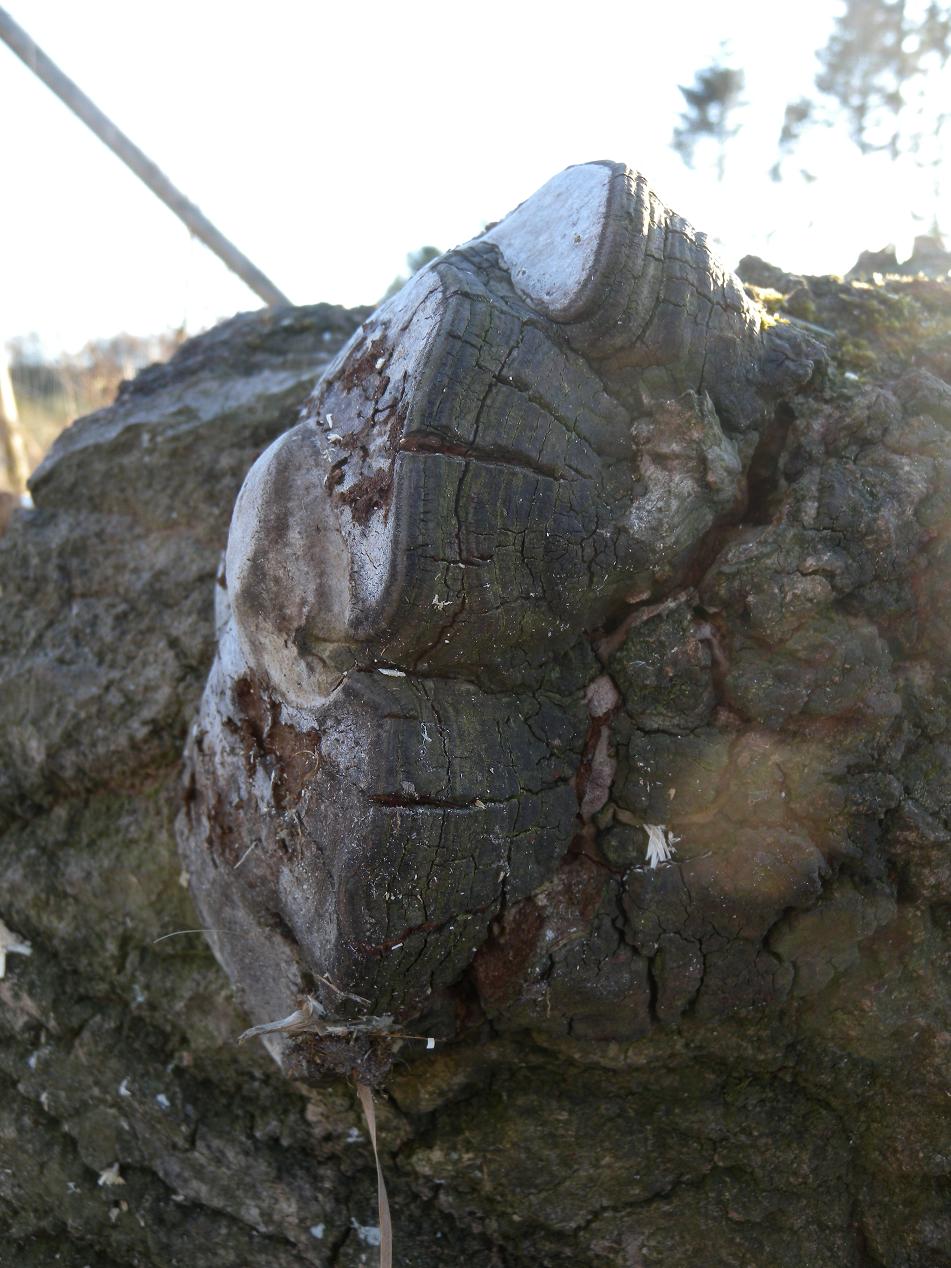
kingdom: Fungi
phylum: Basidiomycota
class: Agaricomycetes
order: Hymenochaetales
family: Hymenochaetaceae
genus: Phellinus
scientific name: Phellinus tremulae
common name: aspe-ildporesvamp
